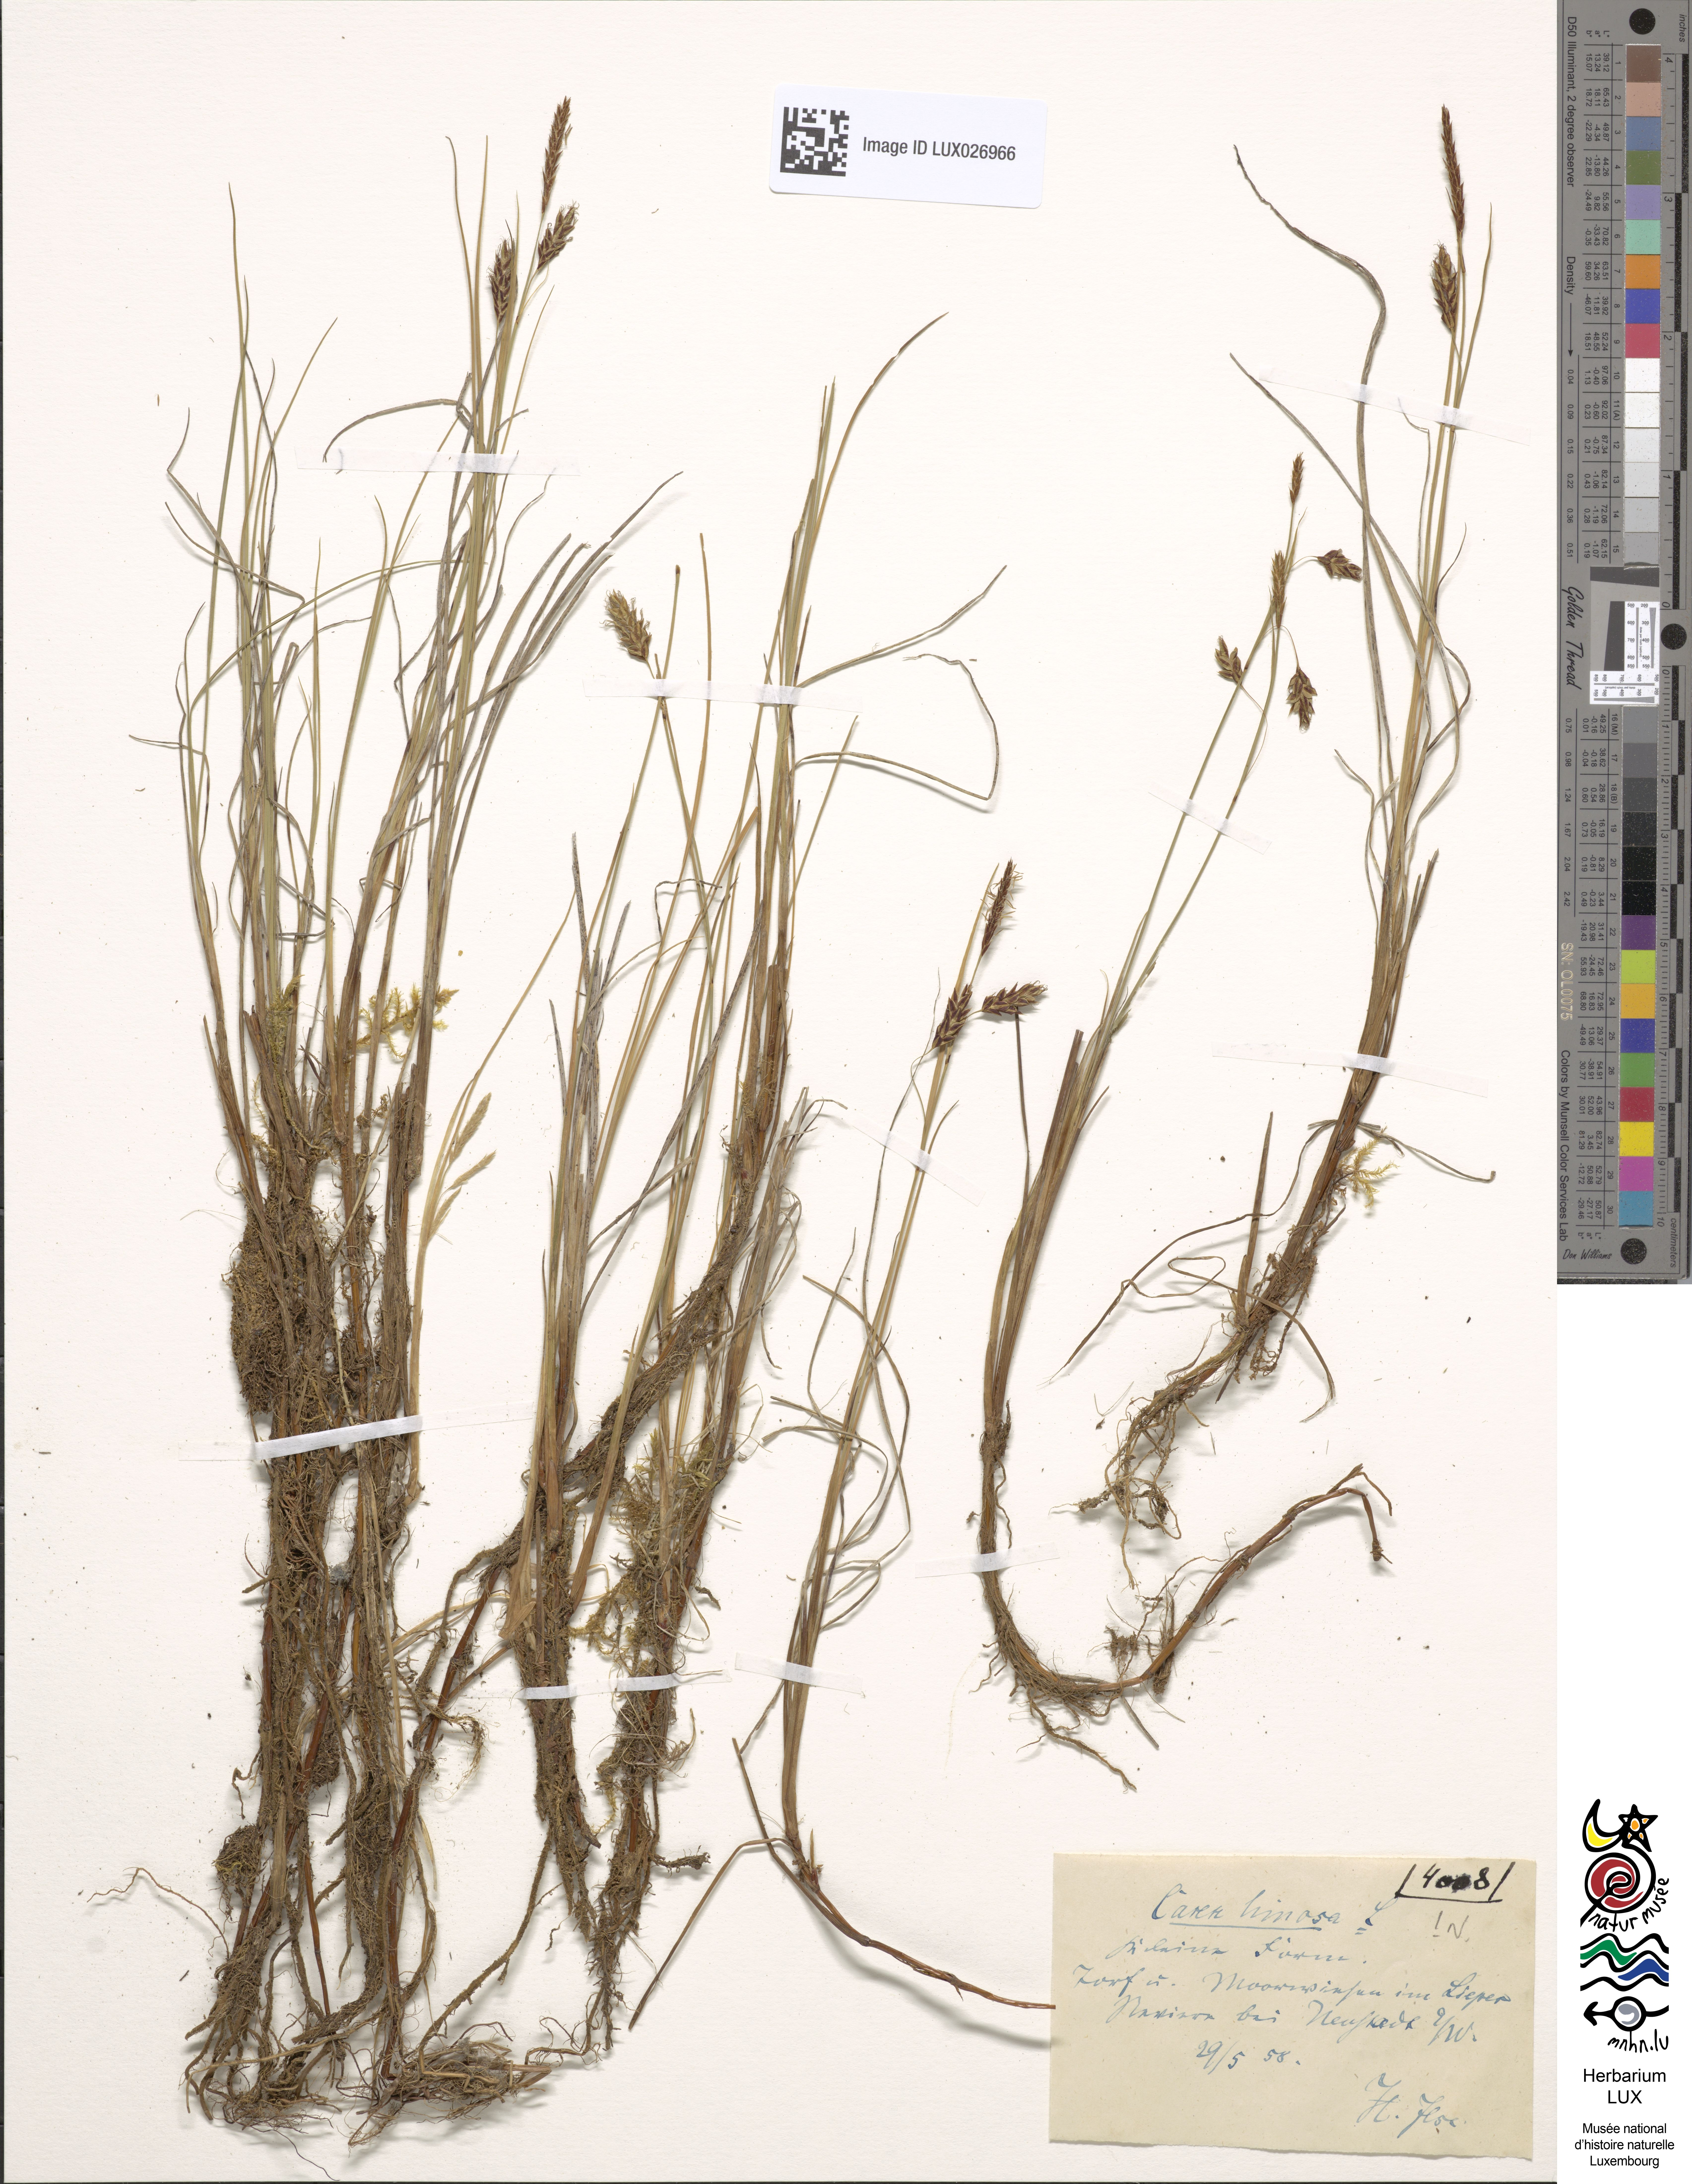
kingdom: Plantae
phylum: Tracheophyta
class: Liliopsida
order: Poales
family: Cyperaceae
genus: Carex
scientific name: Carex limosa
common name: Bog sedge
